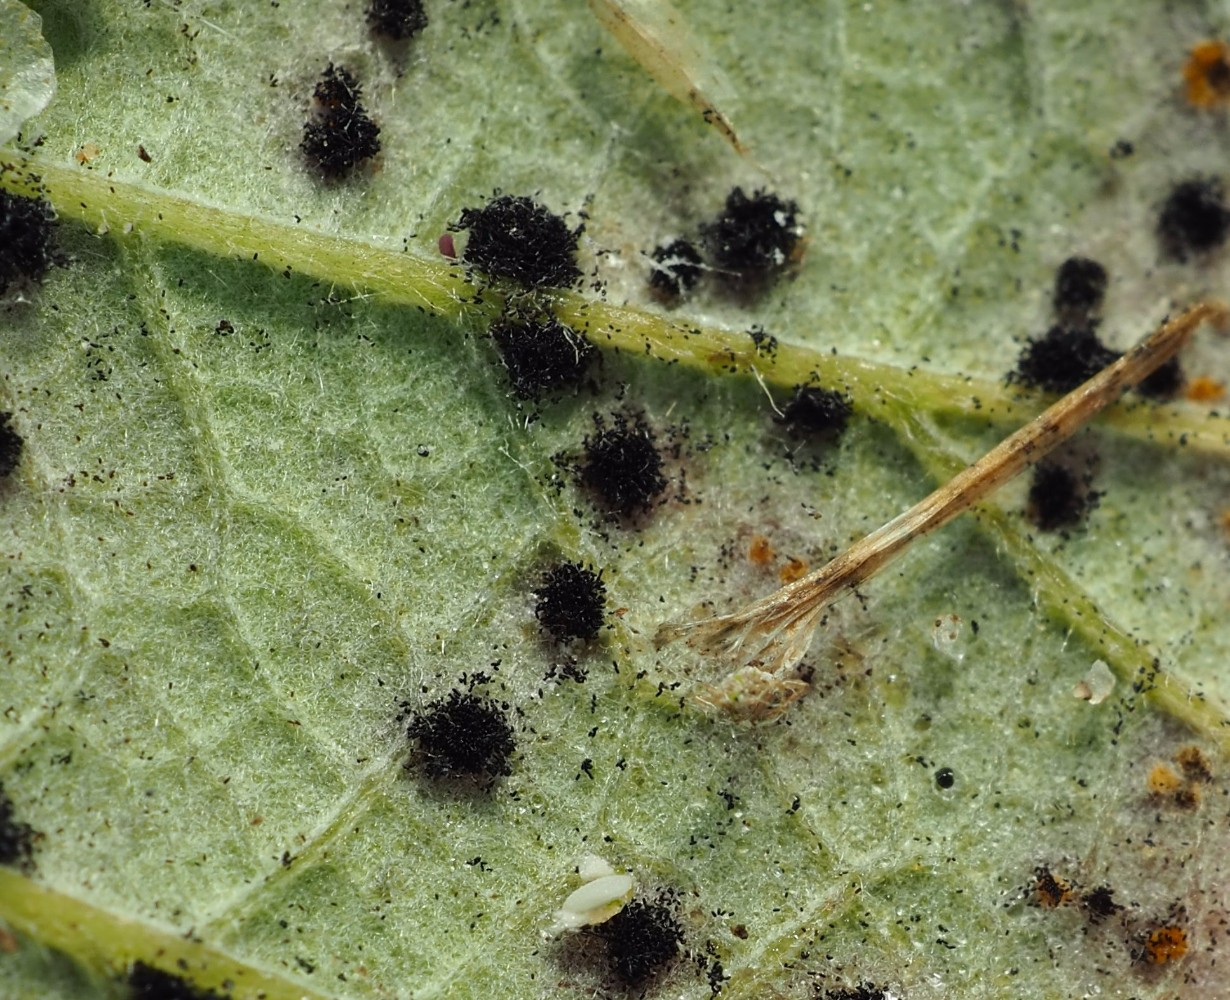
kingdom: Fungi
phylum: Basidiomycota
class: Pucciniomycetes
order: Pucciniales
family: Phragmidiaceae
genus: Phragmidium
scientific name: Phragmidium violaceum
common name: violet flercellerust
